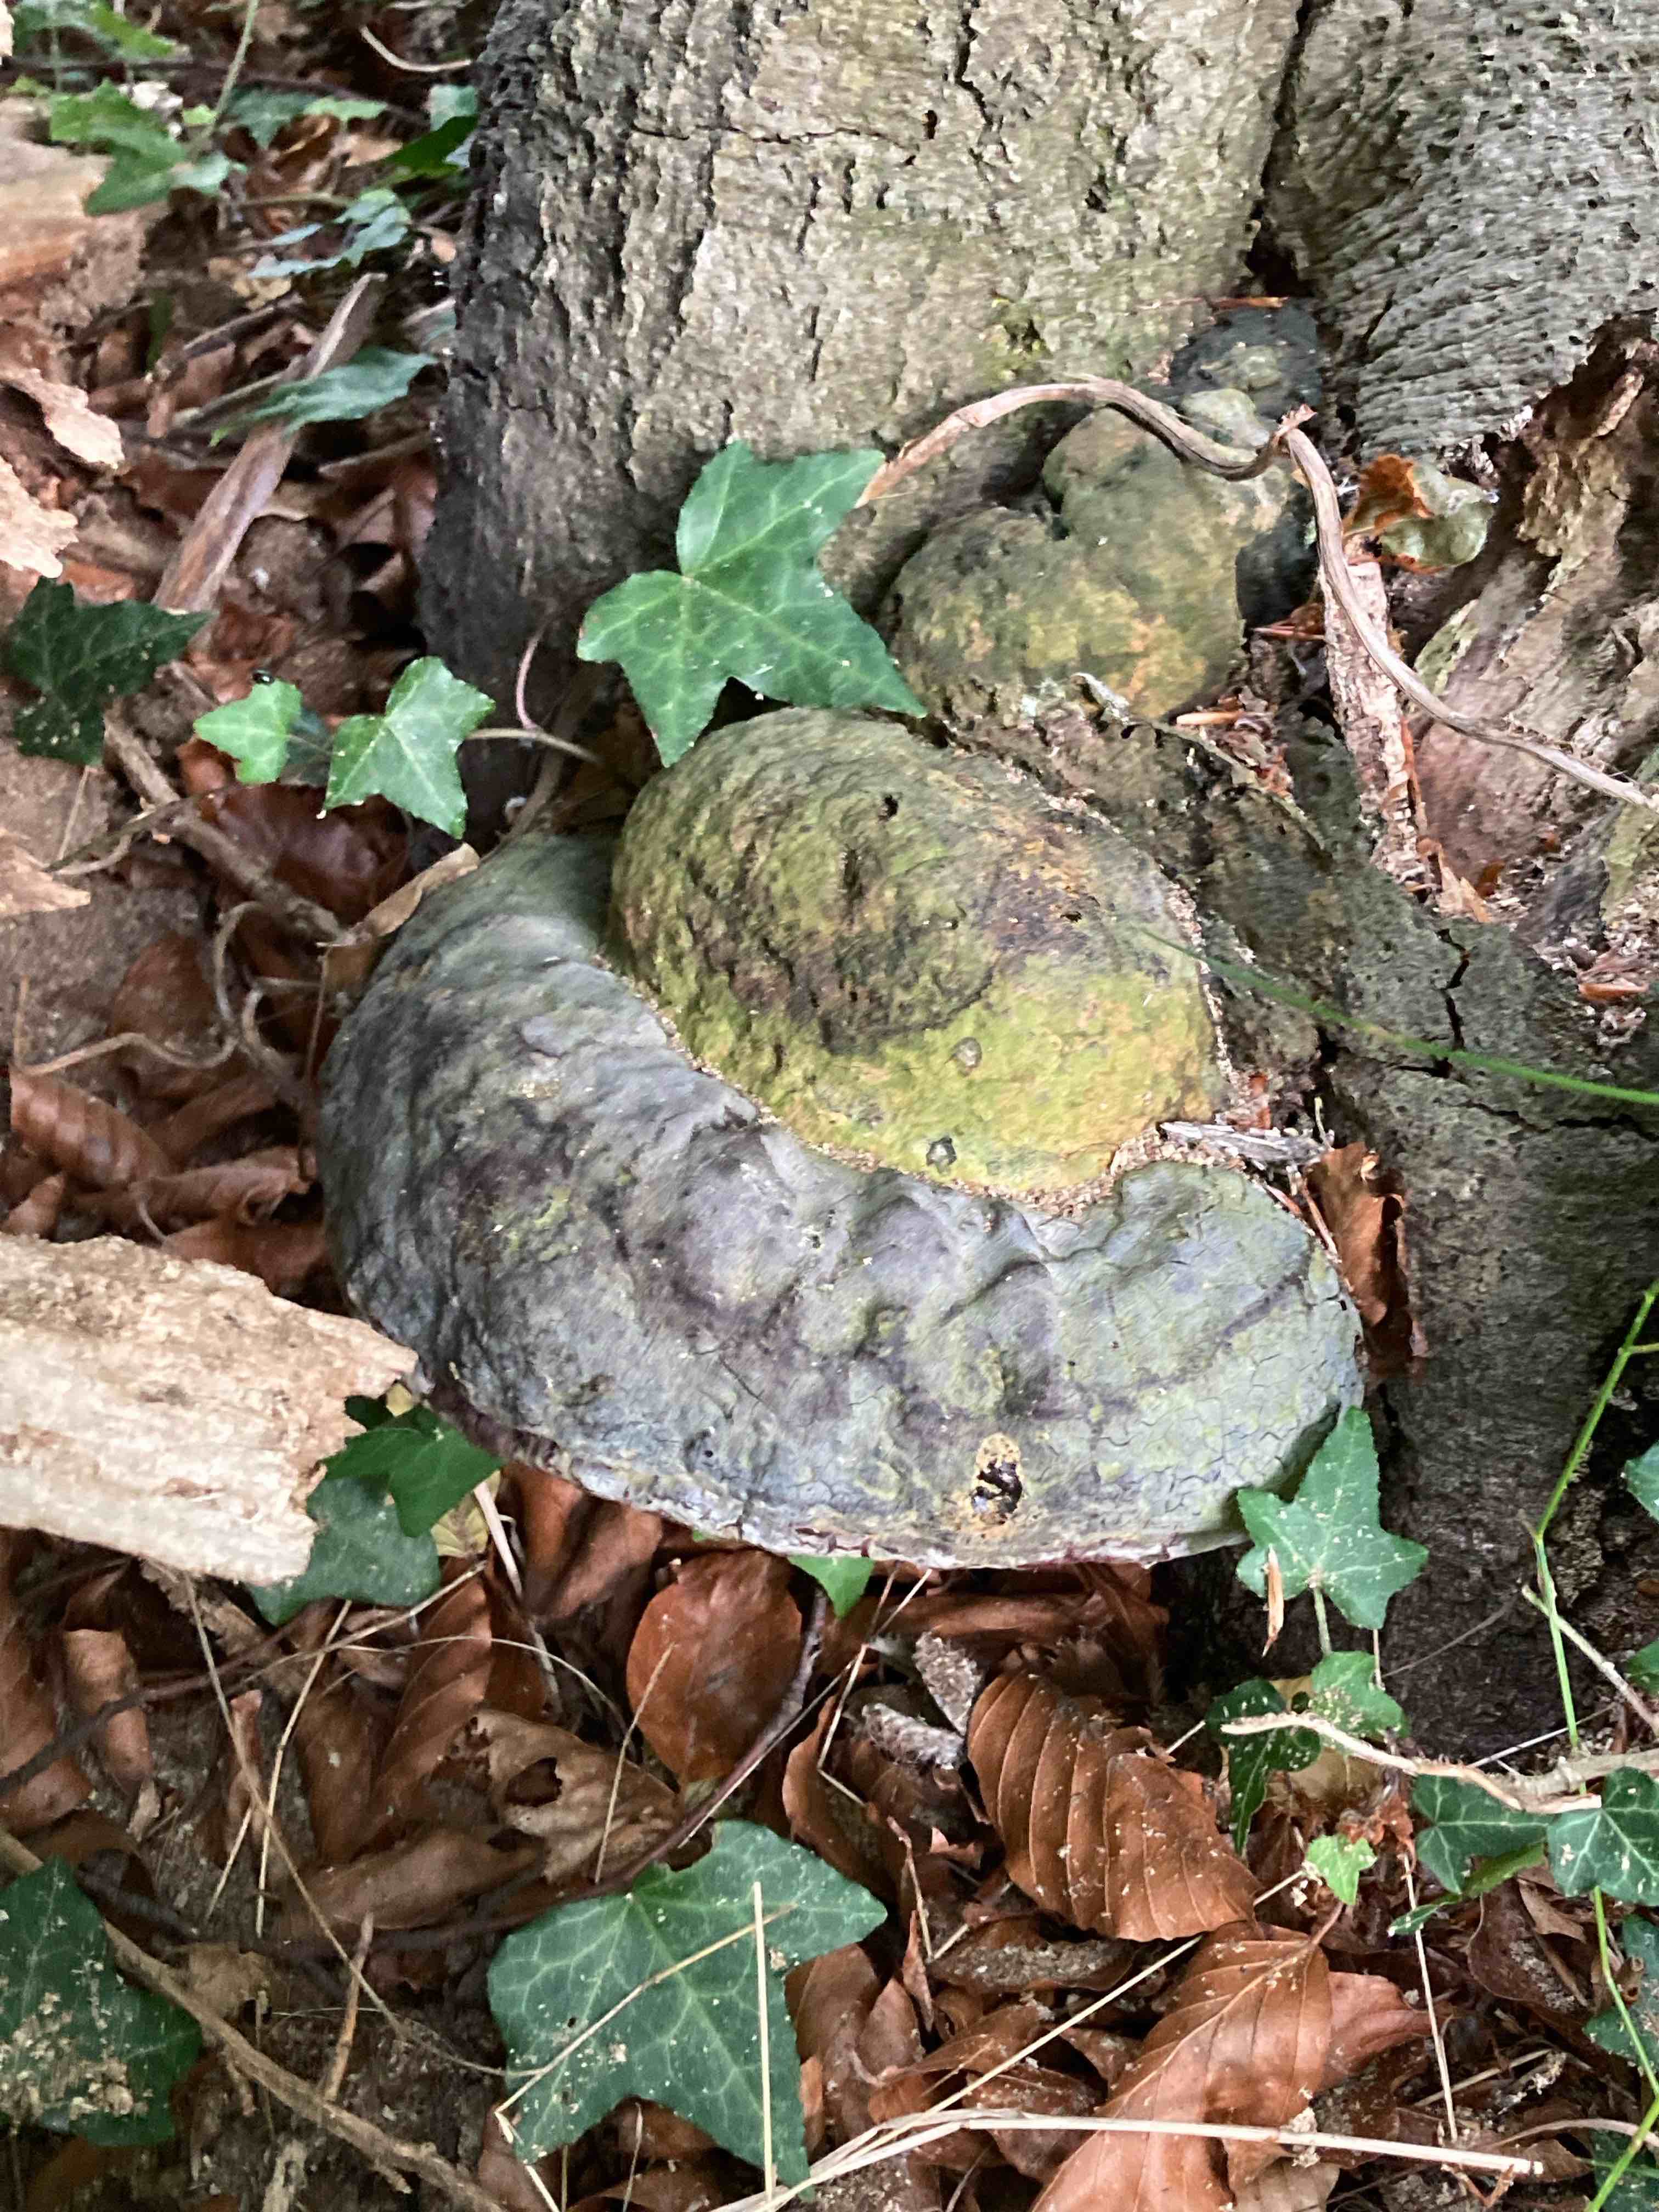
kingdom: Fungi
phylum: Basidiomycota
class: Agaricomycetes
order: Polyporales
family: Polyporaceae
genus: Ganoderma
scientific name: Ganoderma pfeifferi
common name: kobberrød lakporesvamp
